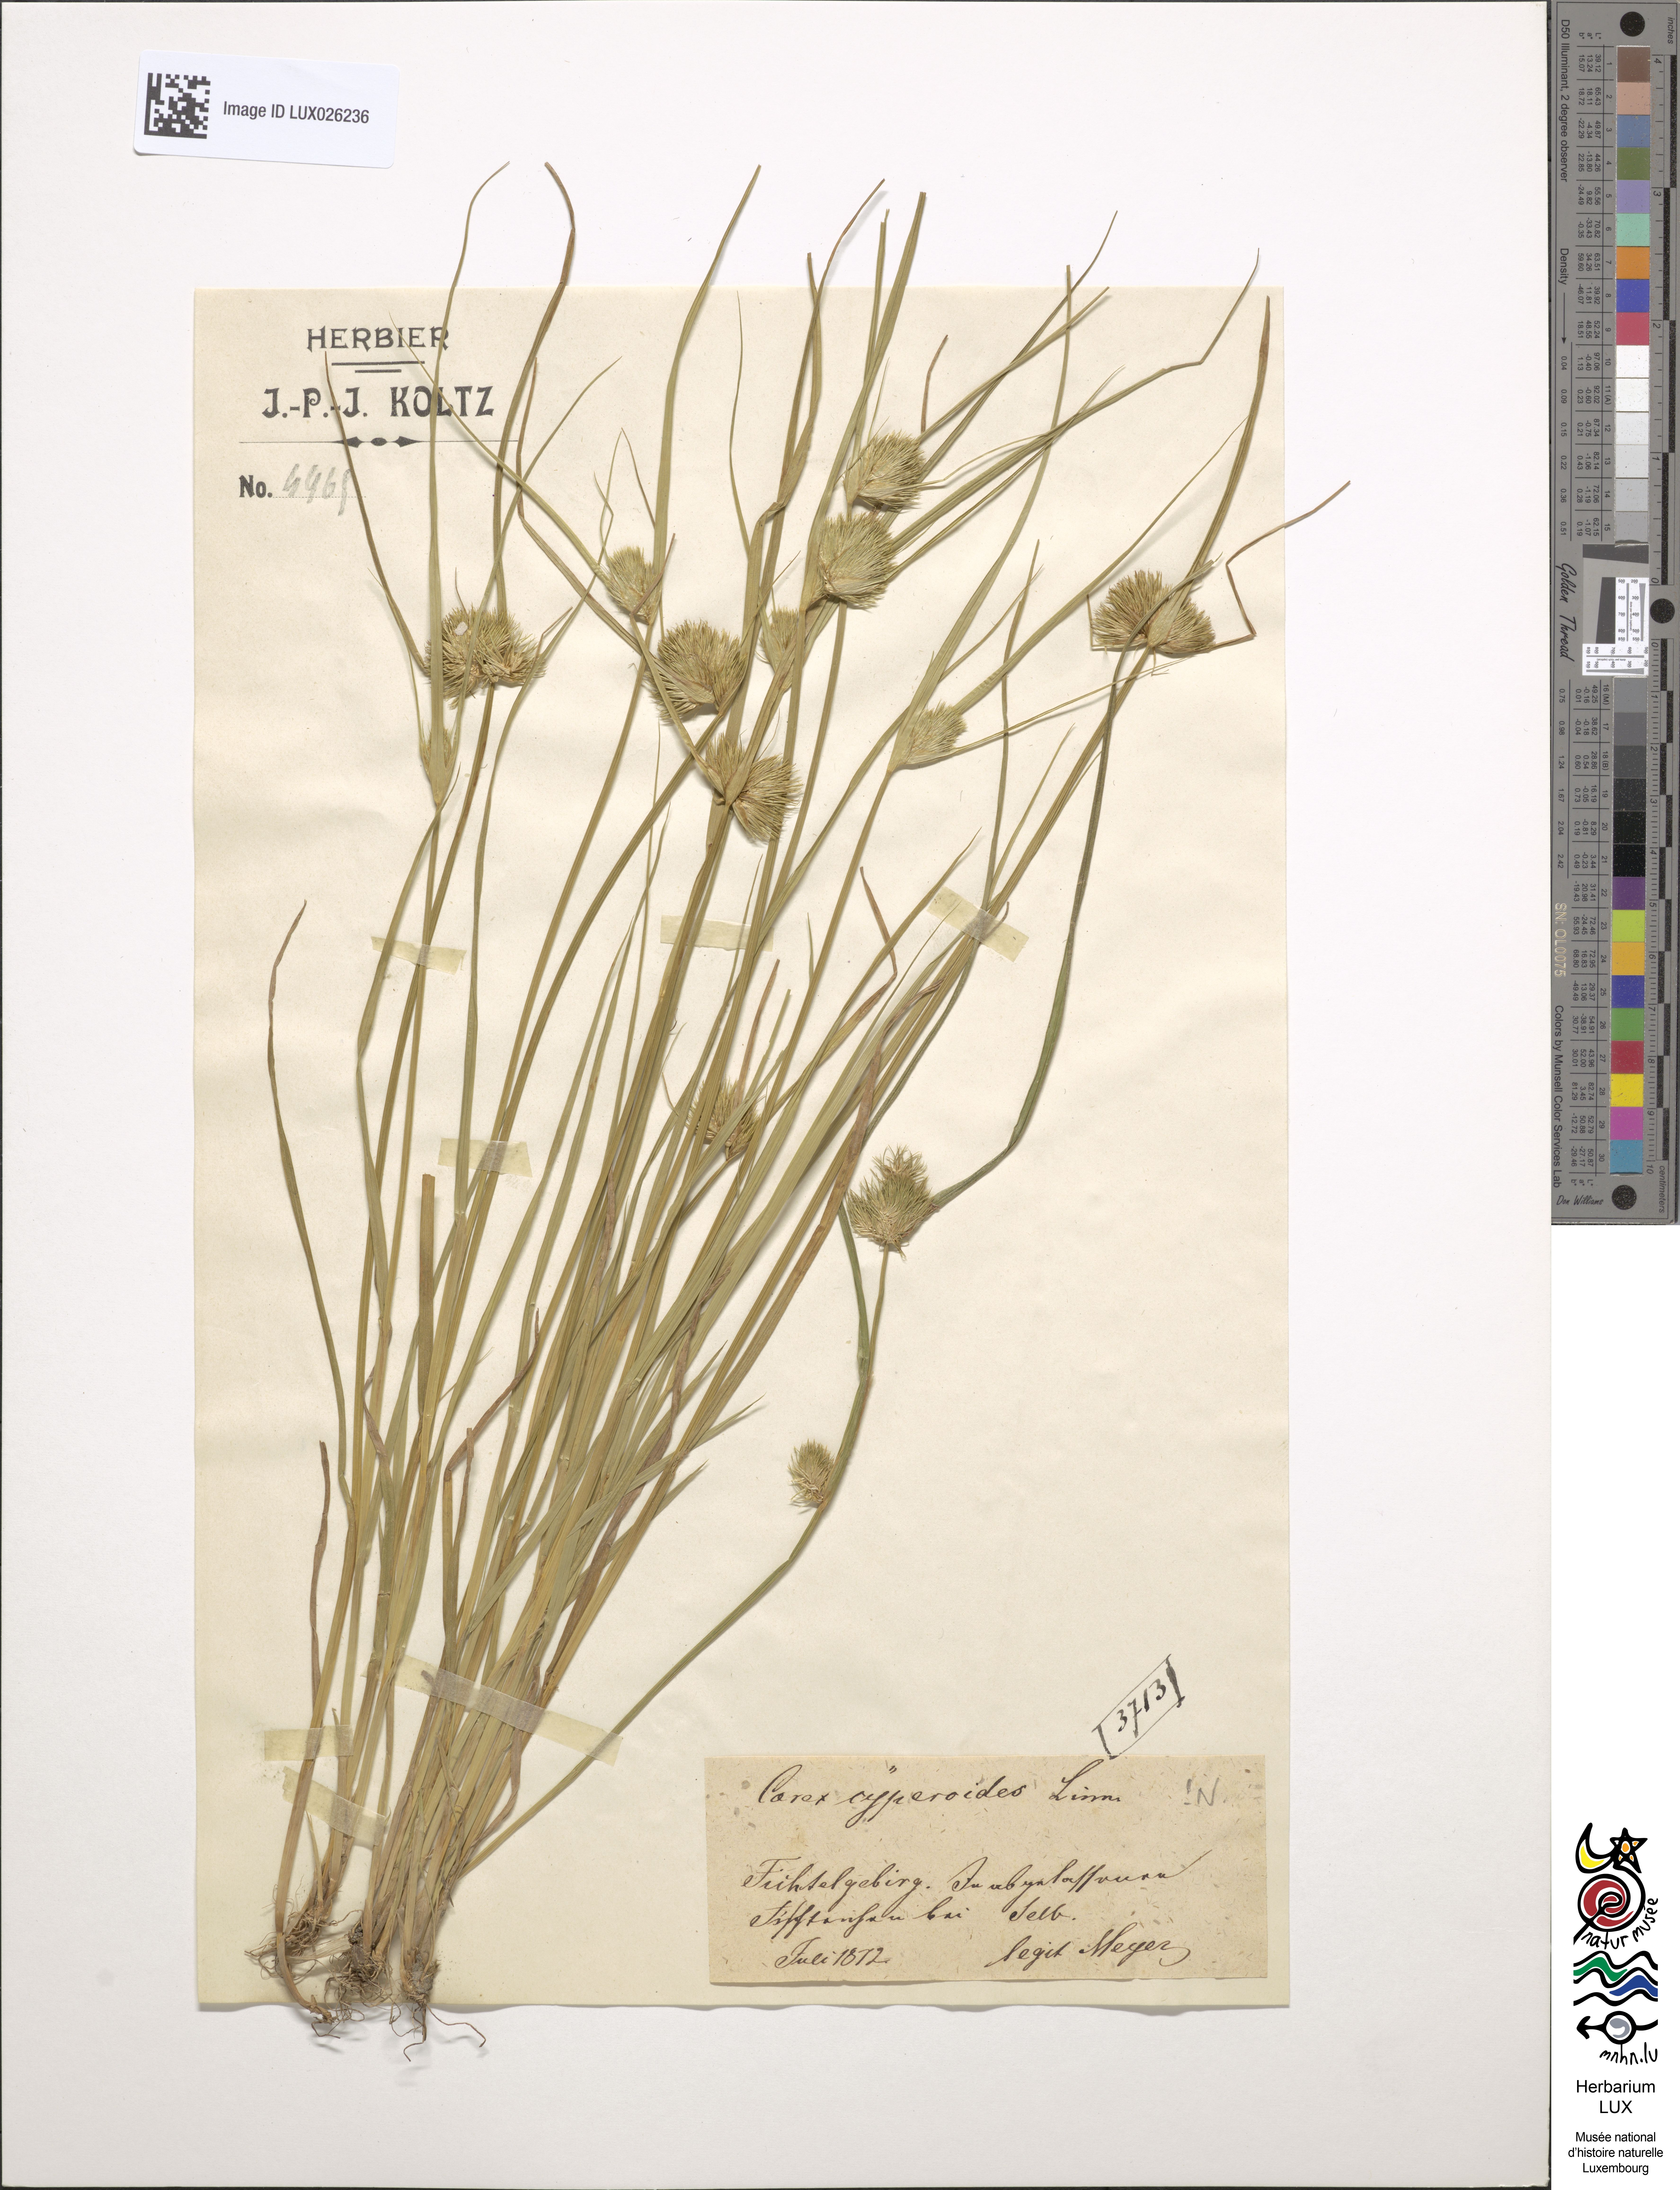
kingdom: Plantae
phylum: Tracheophyta
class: Liliopsida
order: Poales
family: Cyperaceae
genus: Carex
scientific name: Carex bohemica
